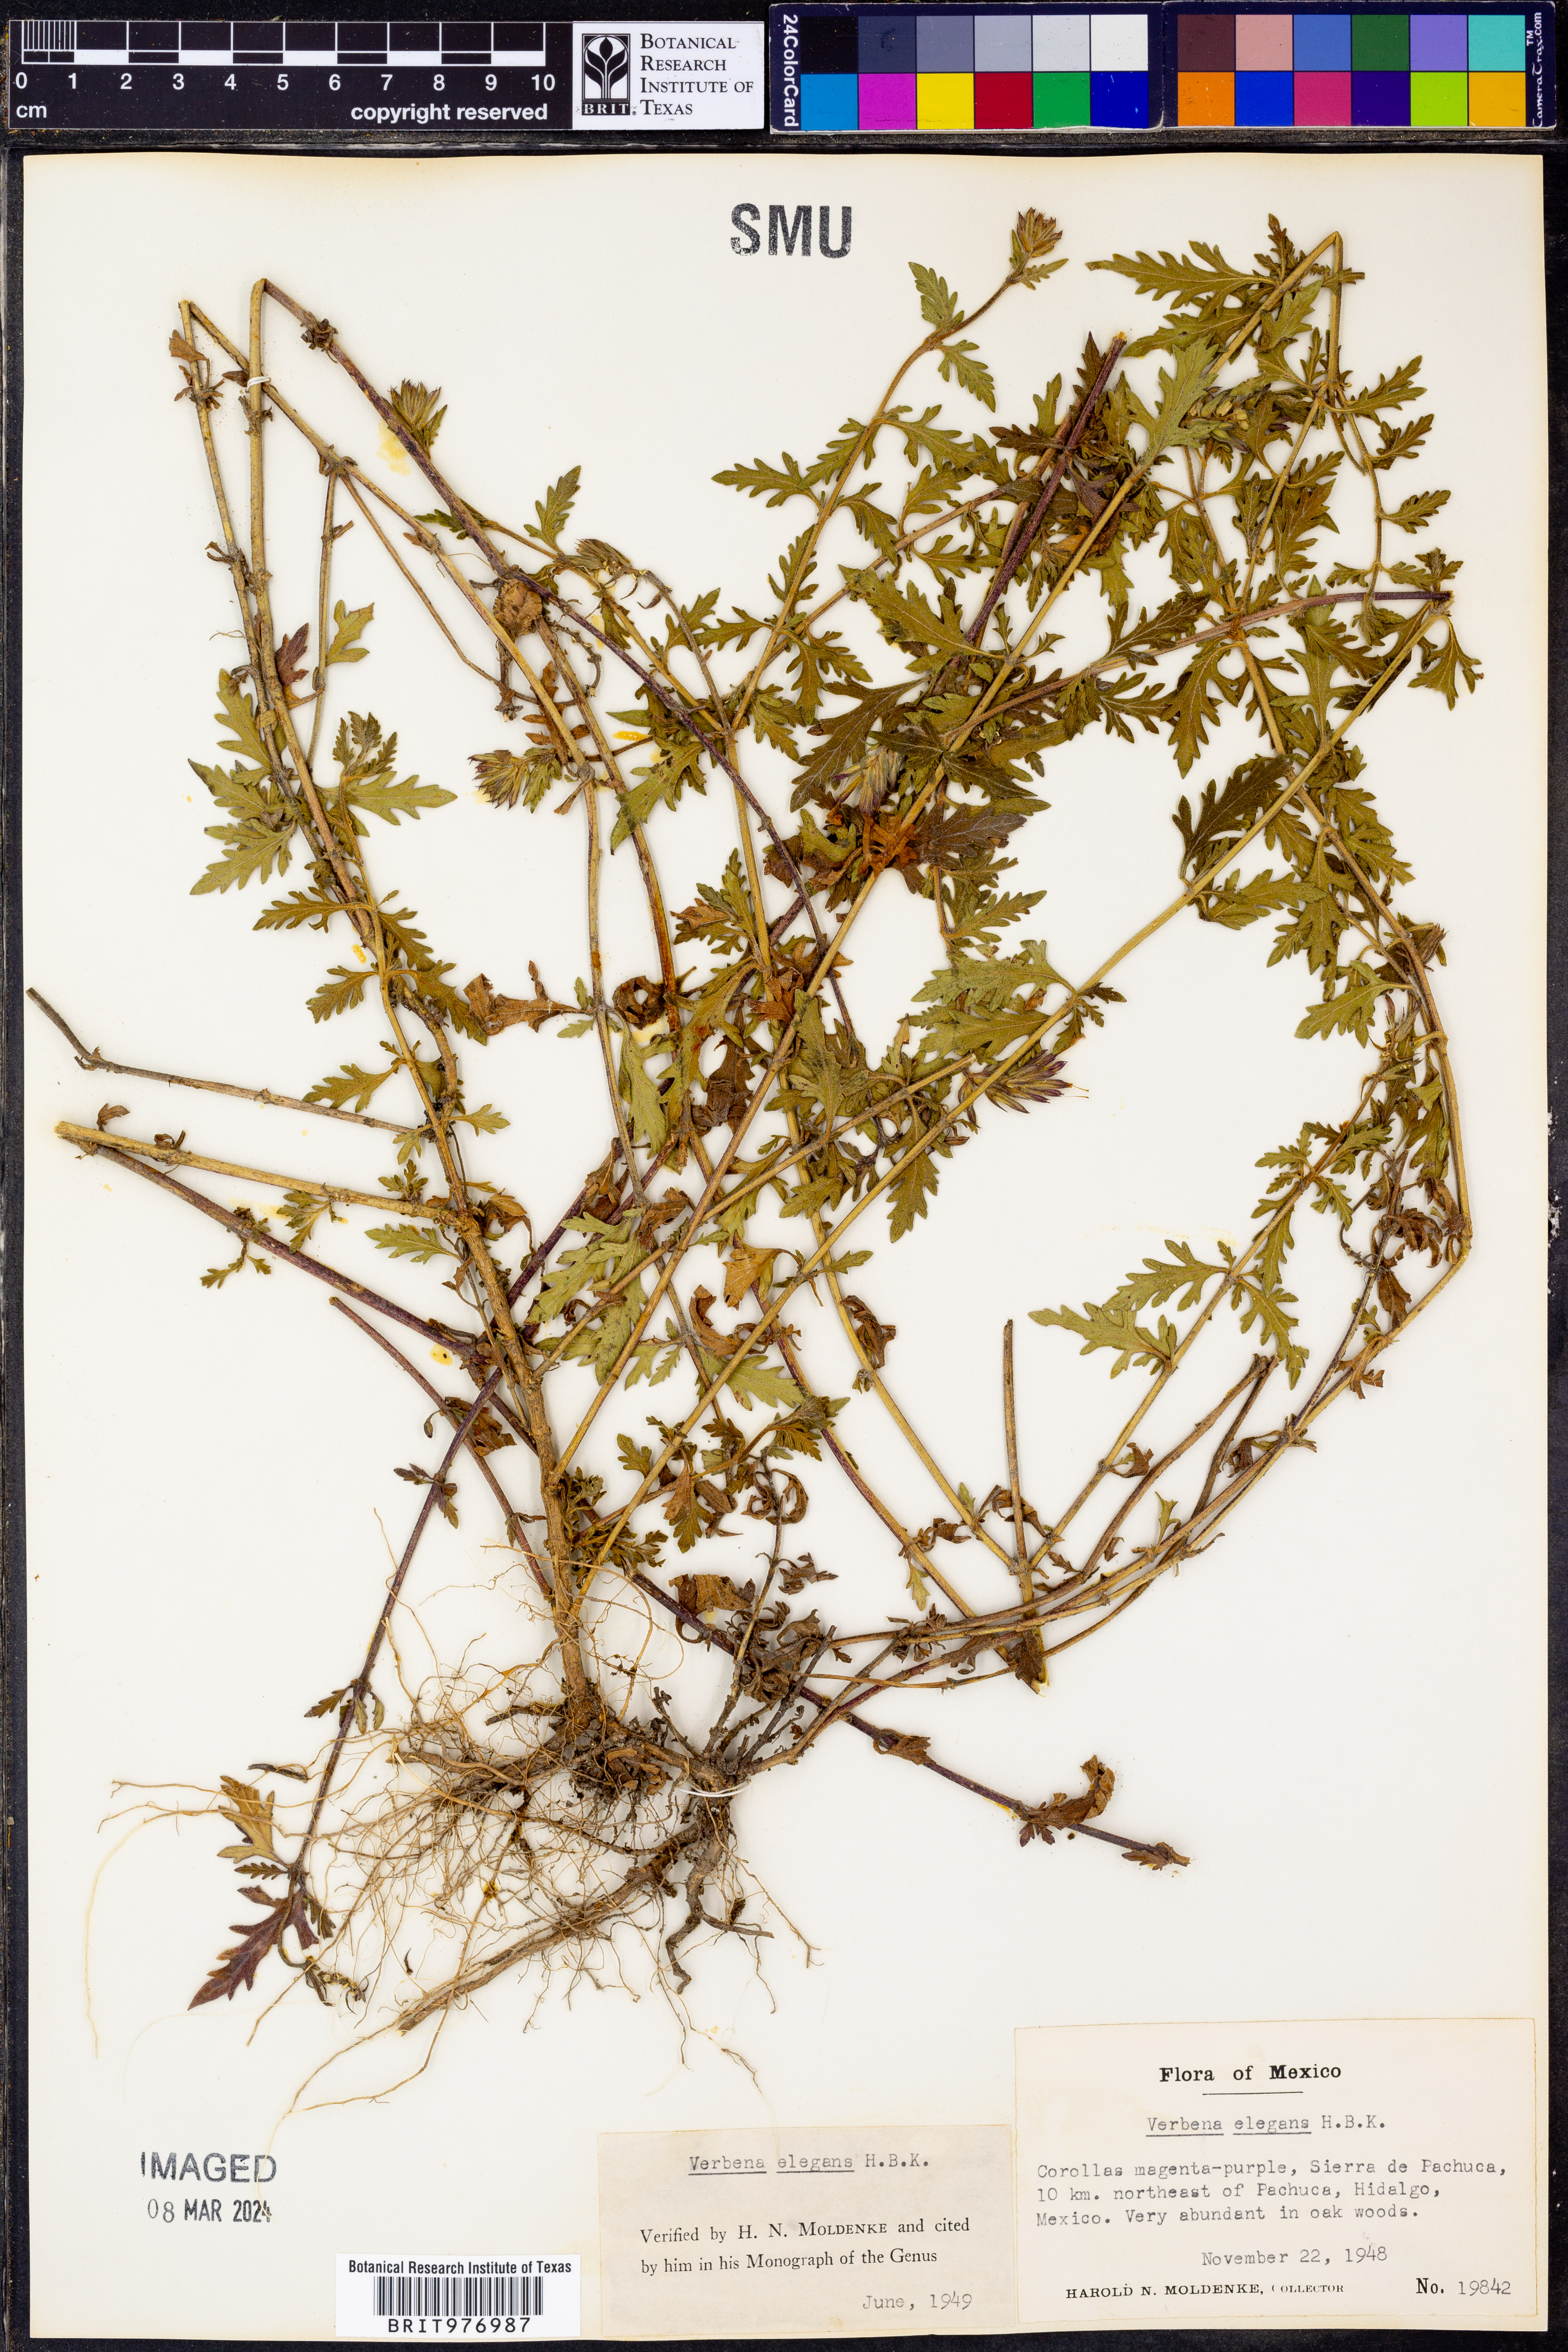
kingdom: Plantae
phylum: Tracheophyta
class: Magnoliopsida
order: Lamiales
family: Verbenaceae
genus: Verbena
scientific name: Verbena elegans
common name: Elegant vervain
